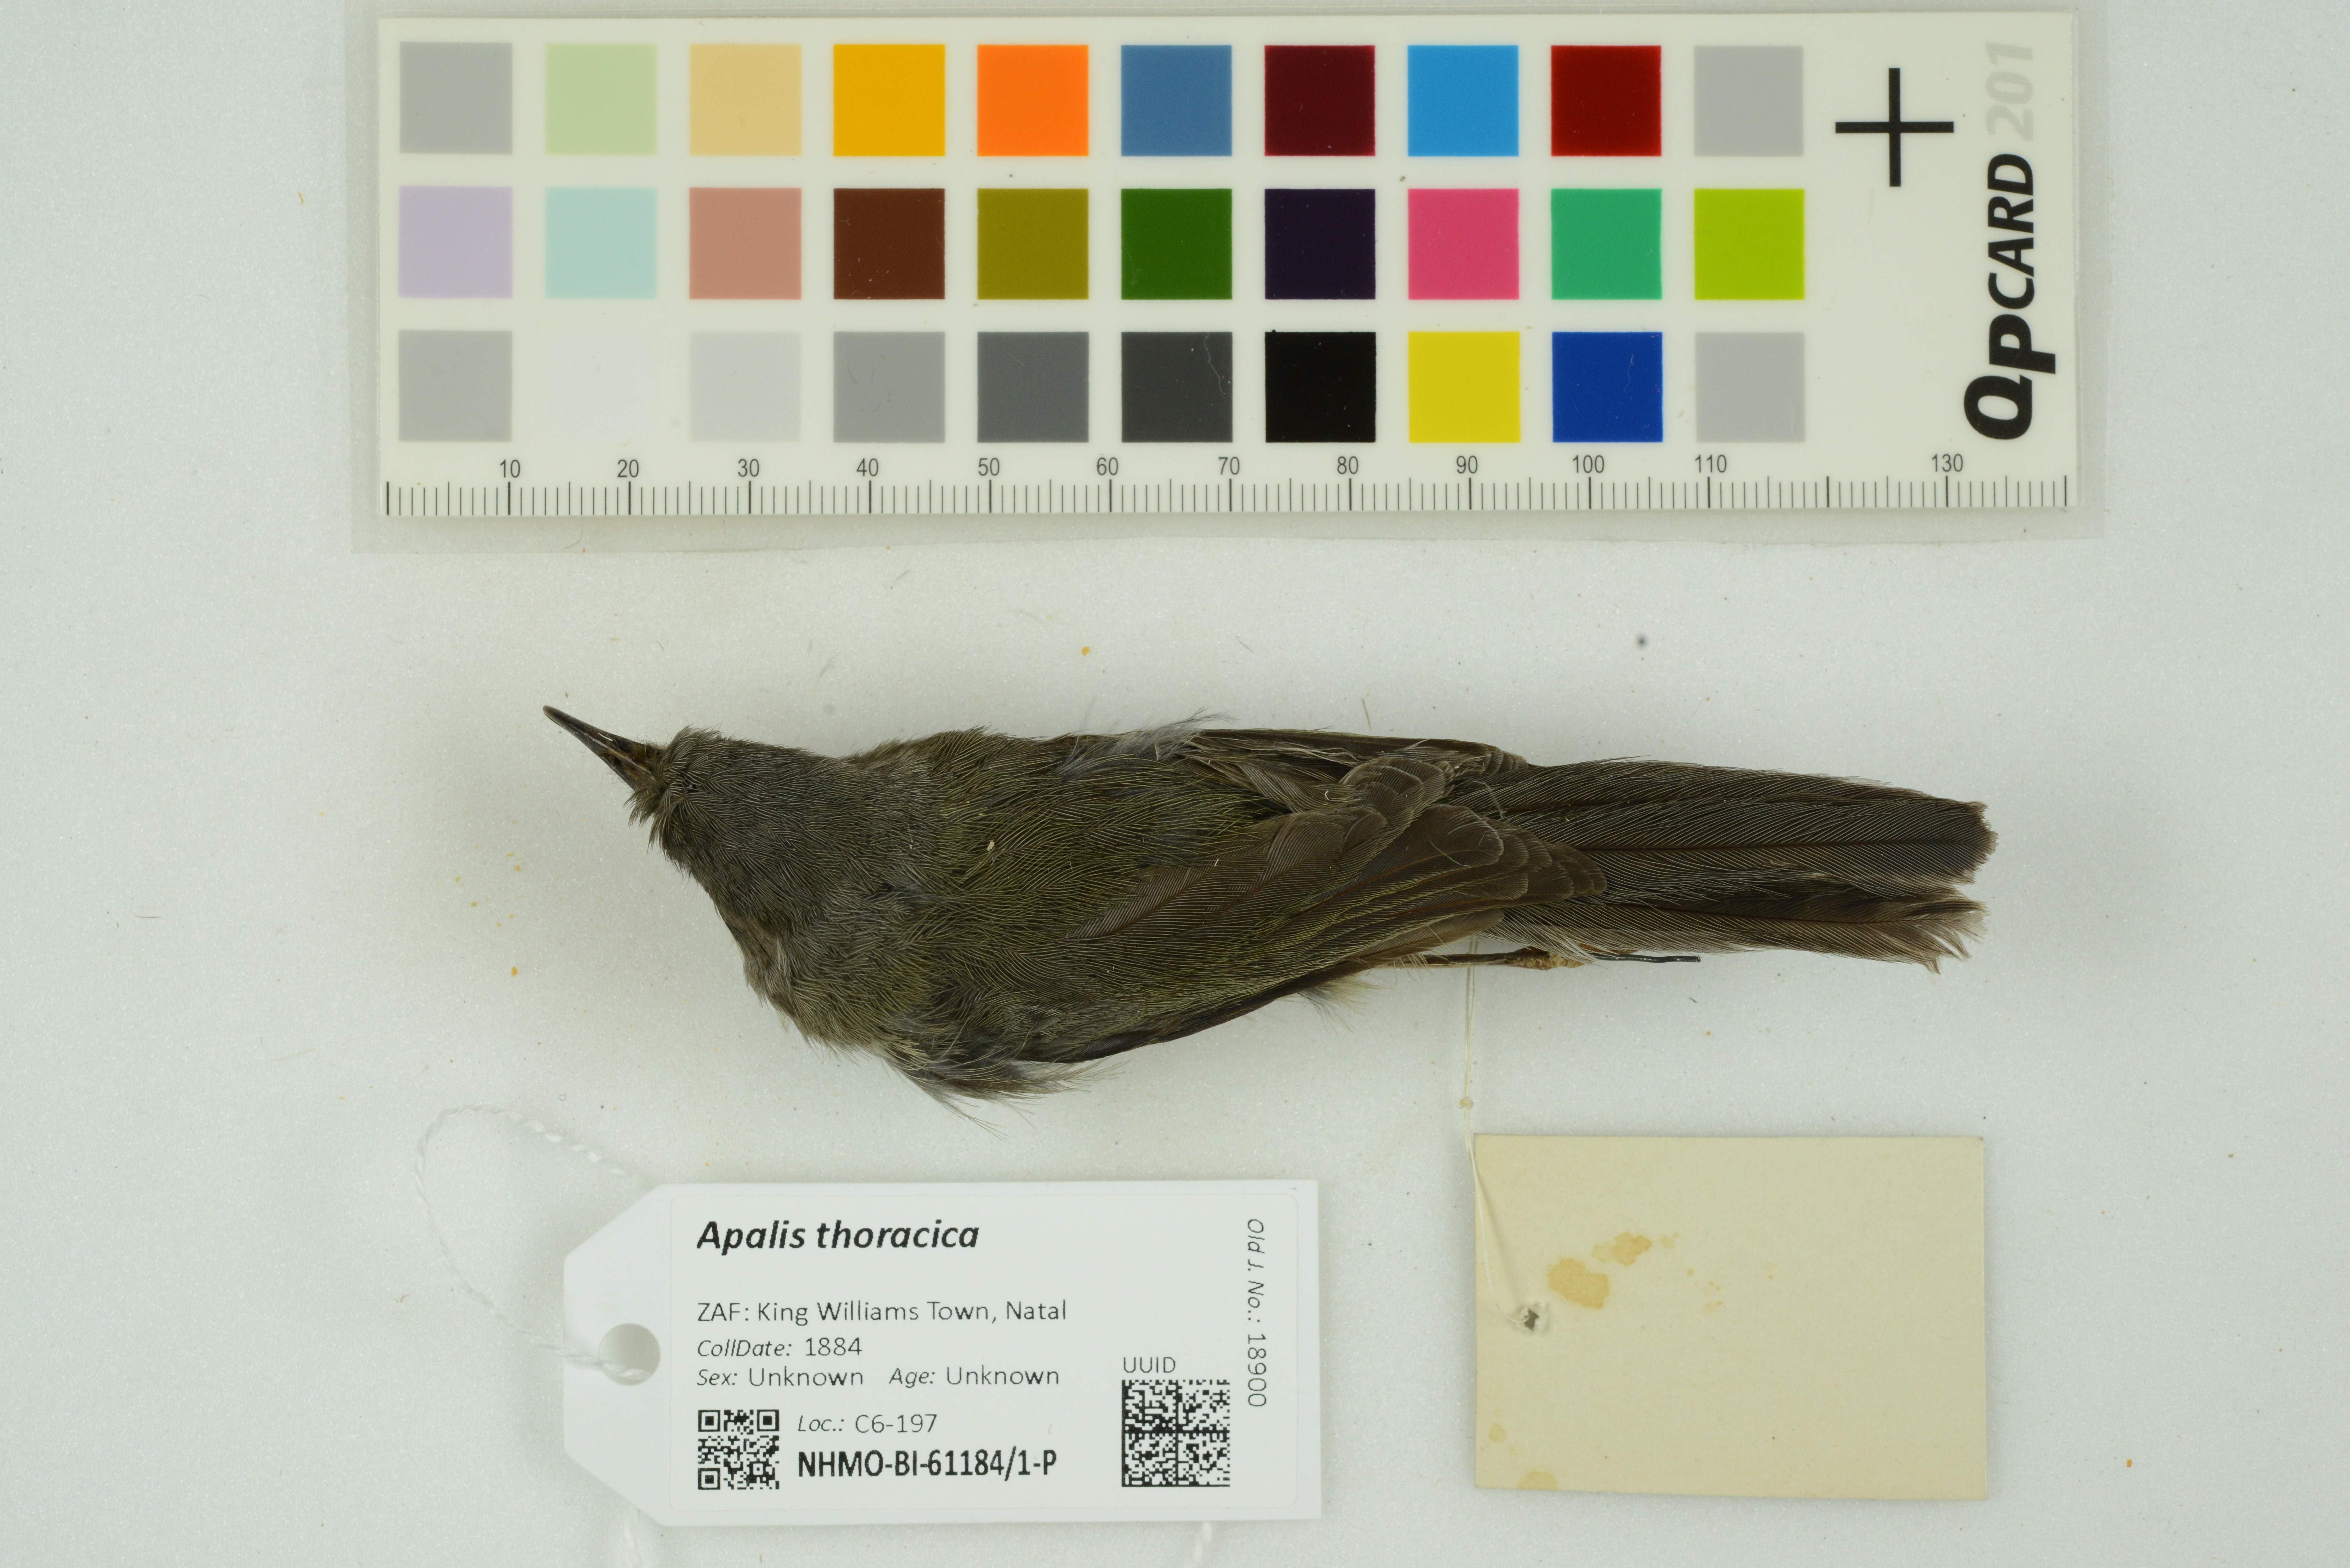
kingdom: Animalia
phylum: Chordata
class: Aves
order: Passeriformes
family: Cisticolidae
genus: Apalis
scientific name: Apalis thoracica
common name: Bar-throated apalis
